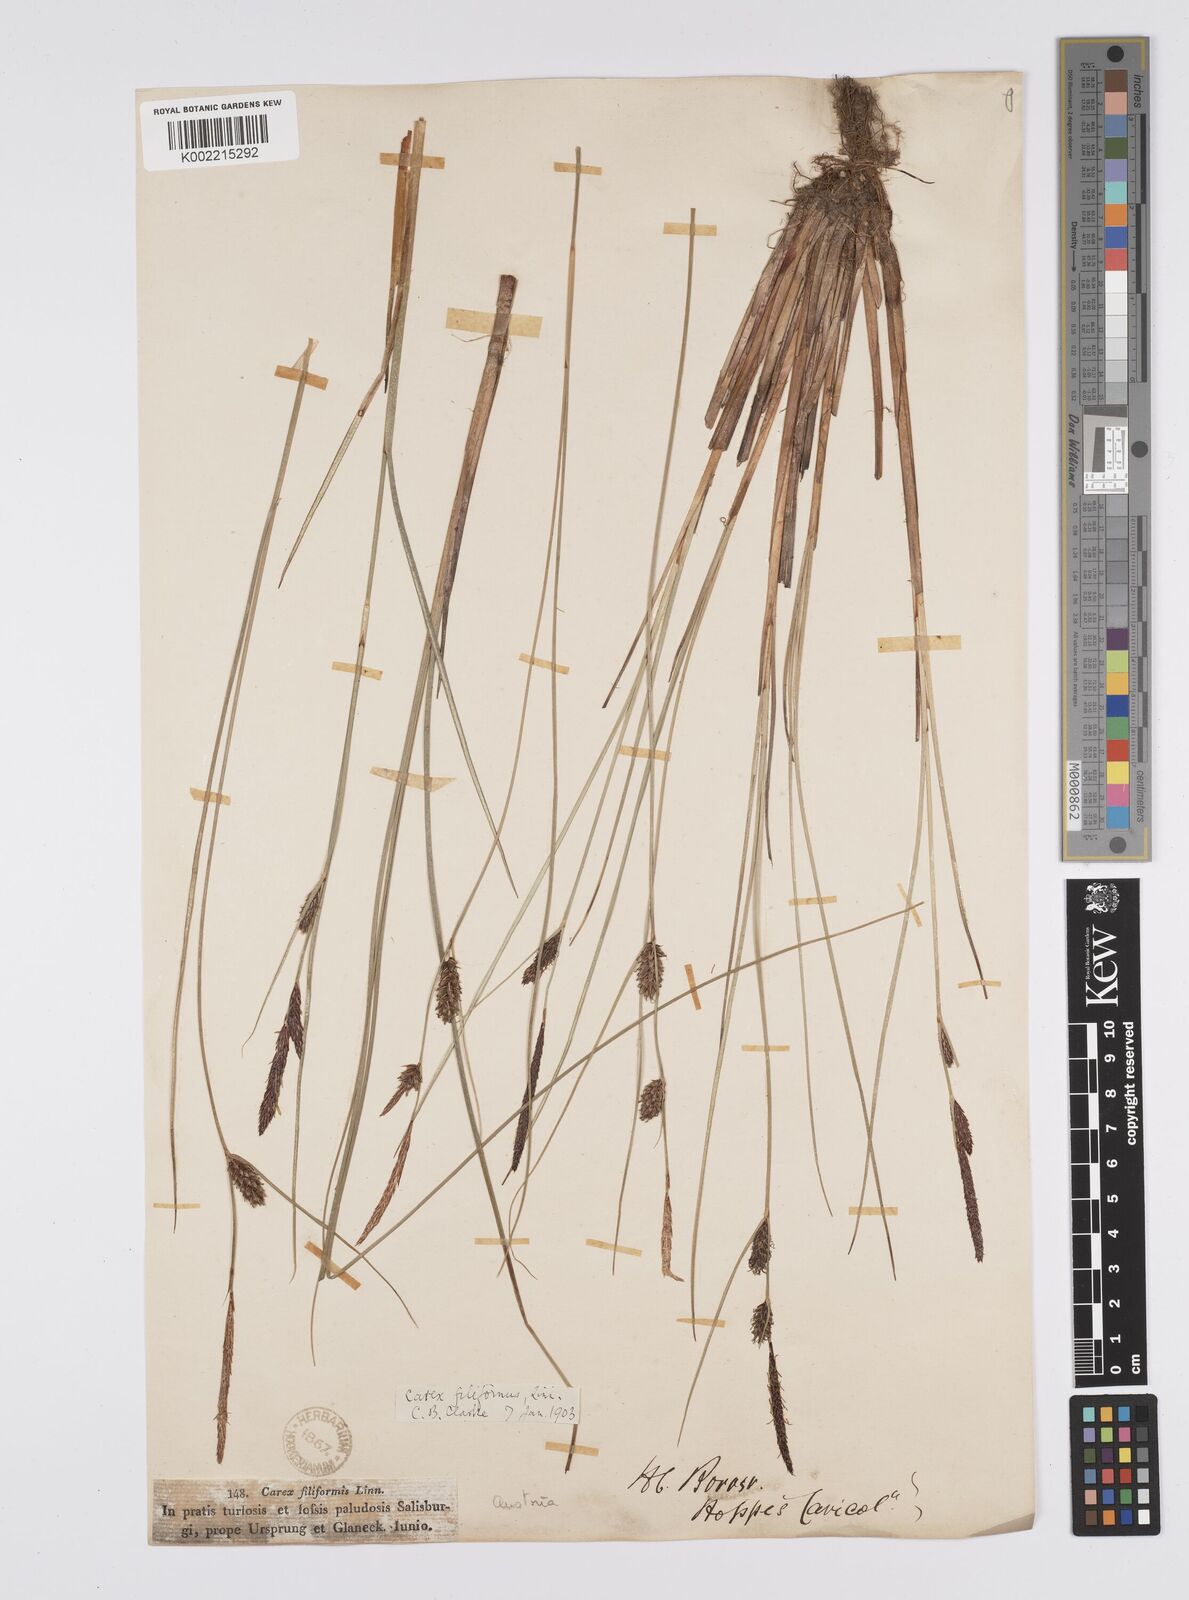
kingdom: Plantae
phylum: Tracheophyta
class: Liliopsida
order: Poales
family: Cyperaceae
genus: Carex
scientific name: Carex lasiocarpa
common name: Slender sedge
